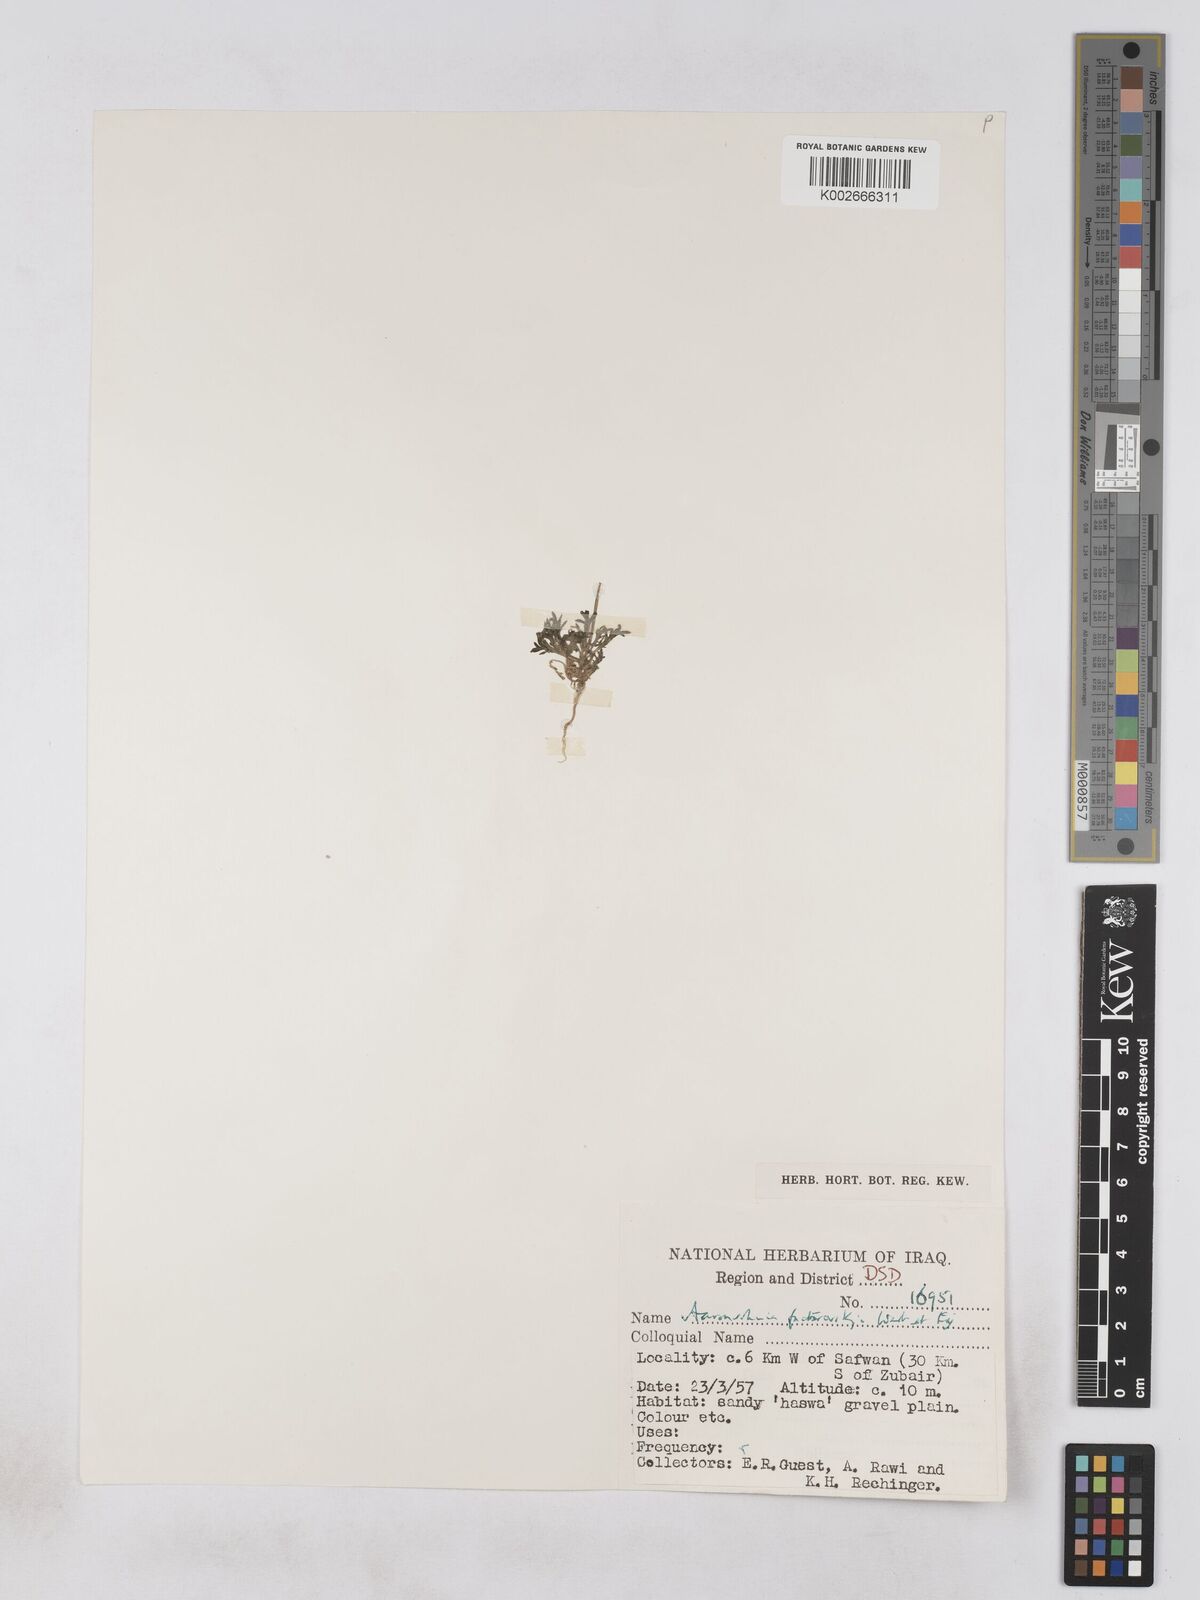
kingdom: Plantae
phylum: Tracheophyta
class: Magnoliopsida
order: Asterales
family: Asteraceae
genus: Otoglyphis
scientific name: Otoglyphis factorovskyi
